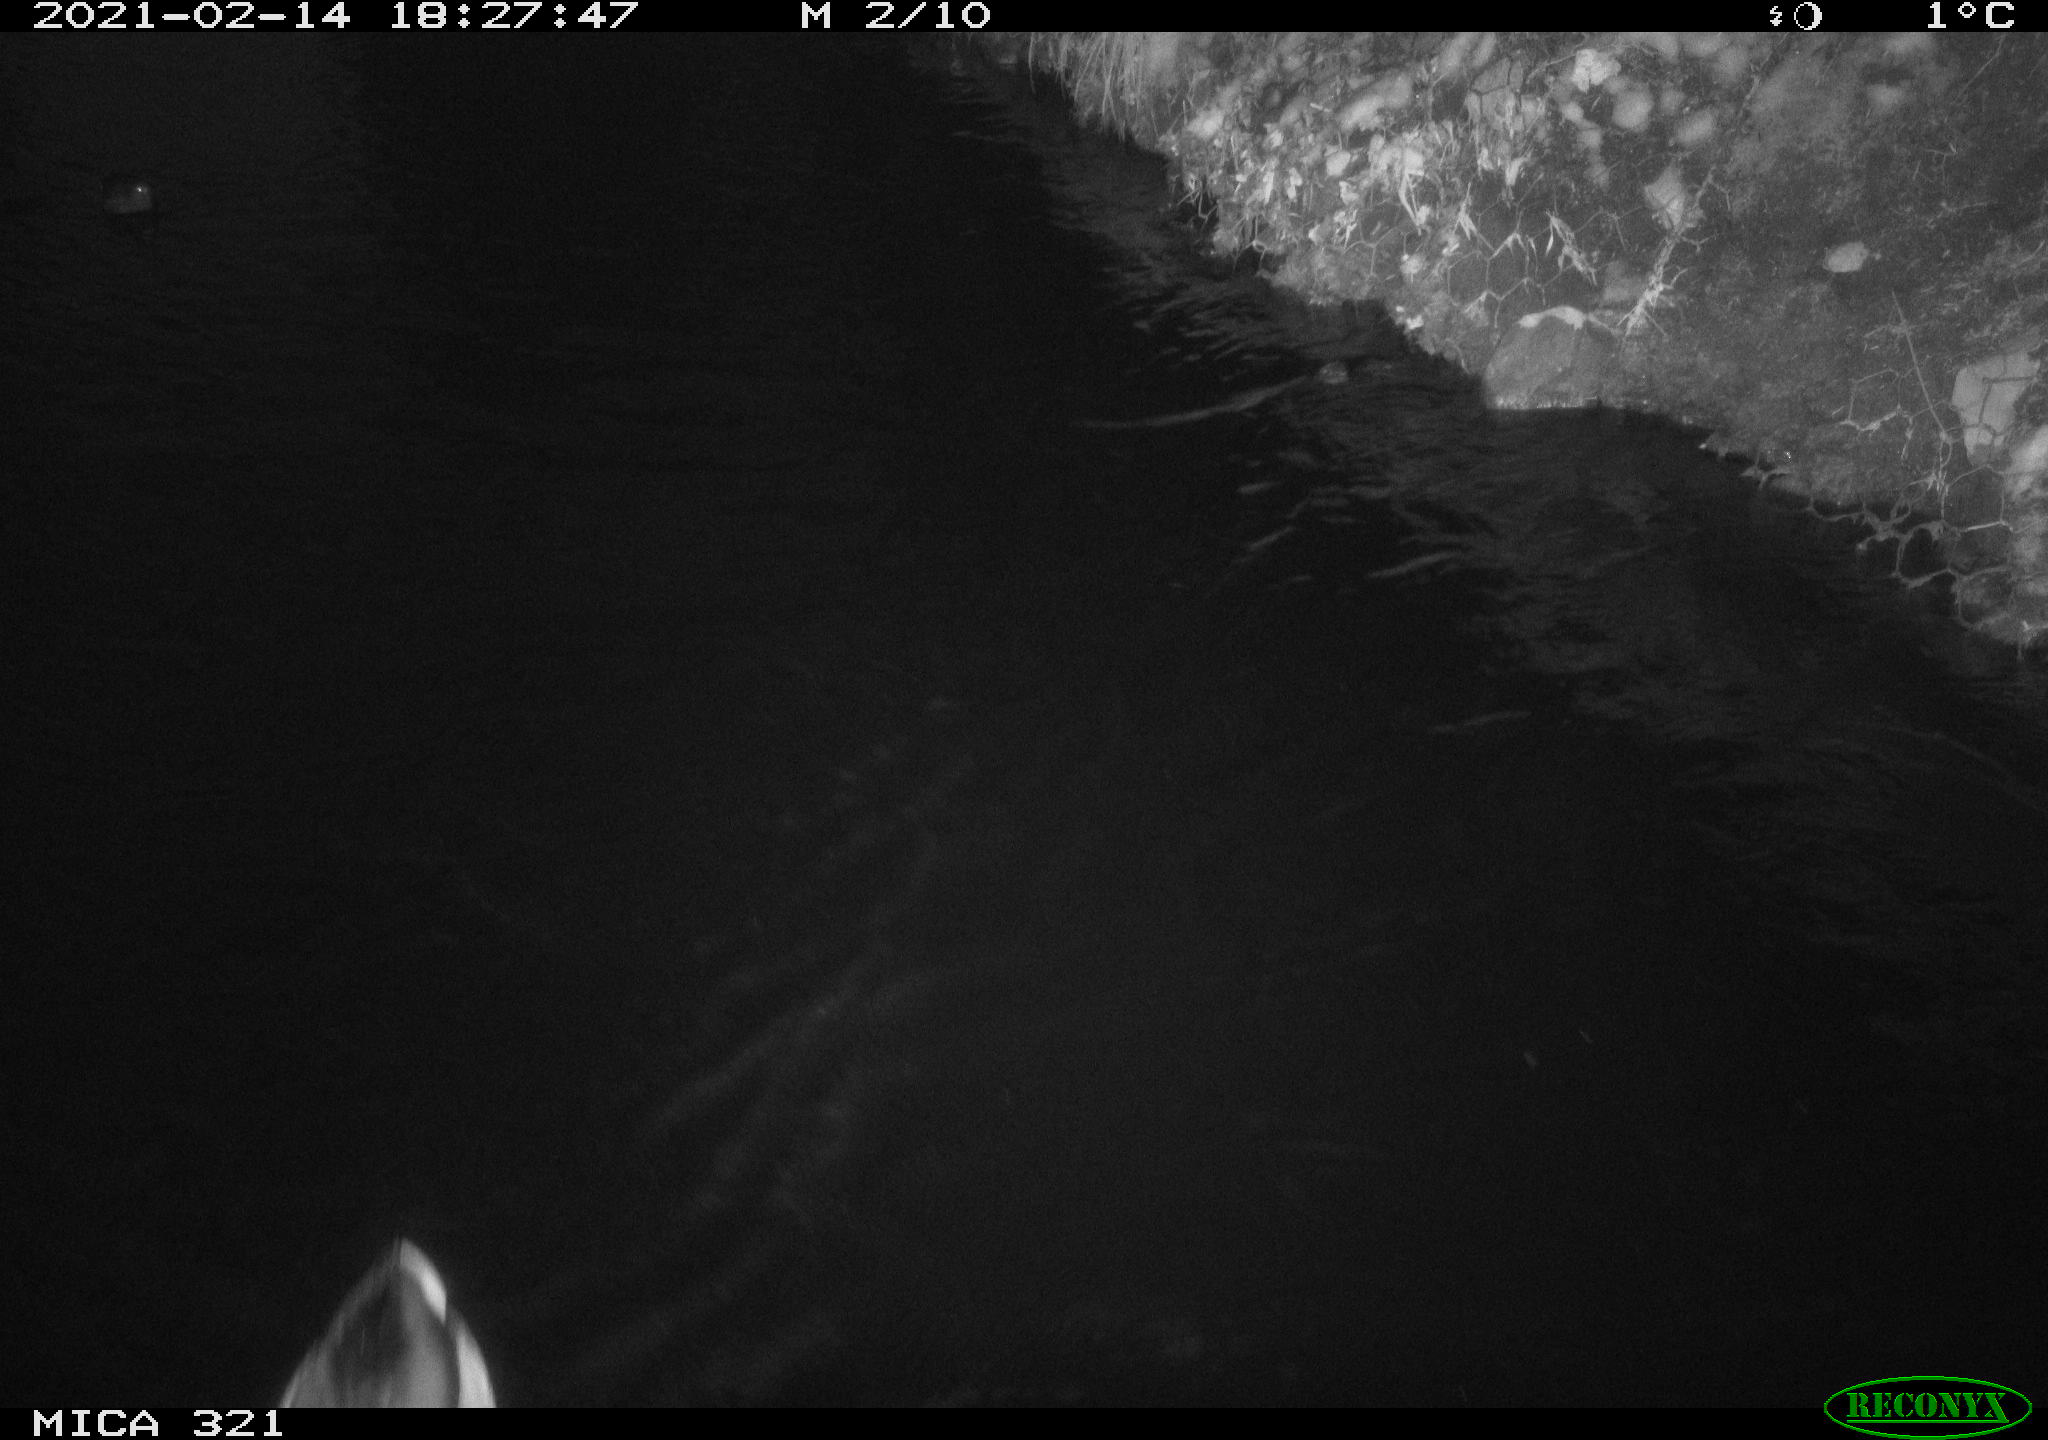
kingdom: Animalia
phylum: Chordata
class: Aves
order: Gruiformes
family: Rallidae
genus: Gallinula
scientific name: Gallinula chloropus
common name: Common moorhen
